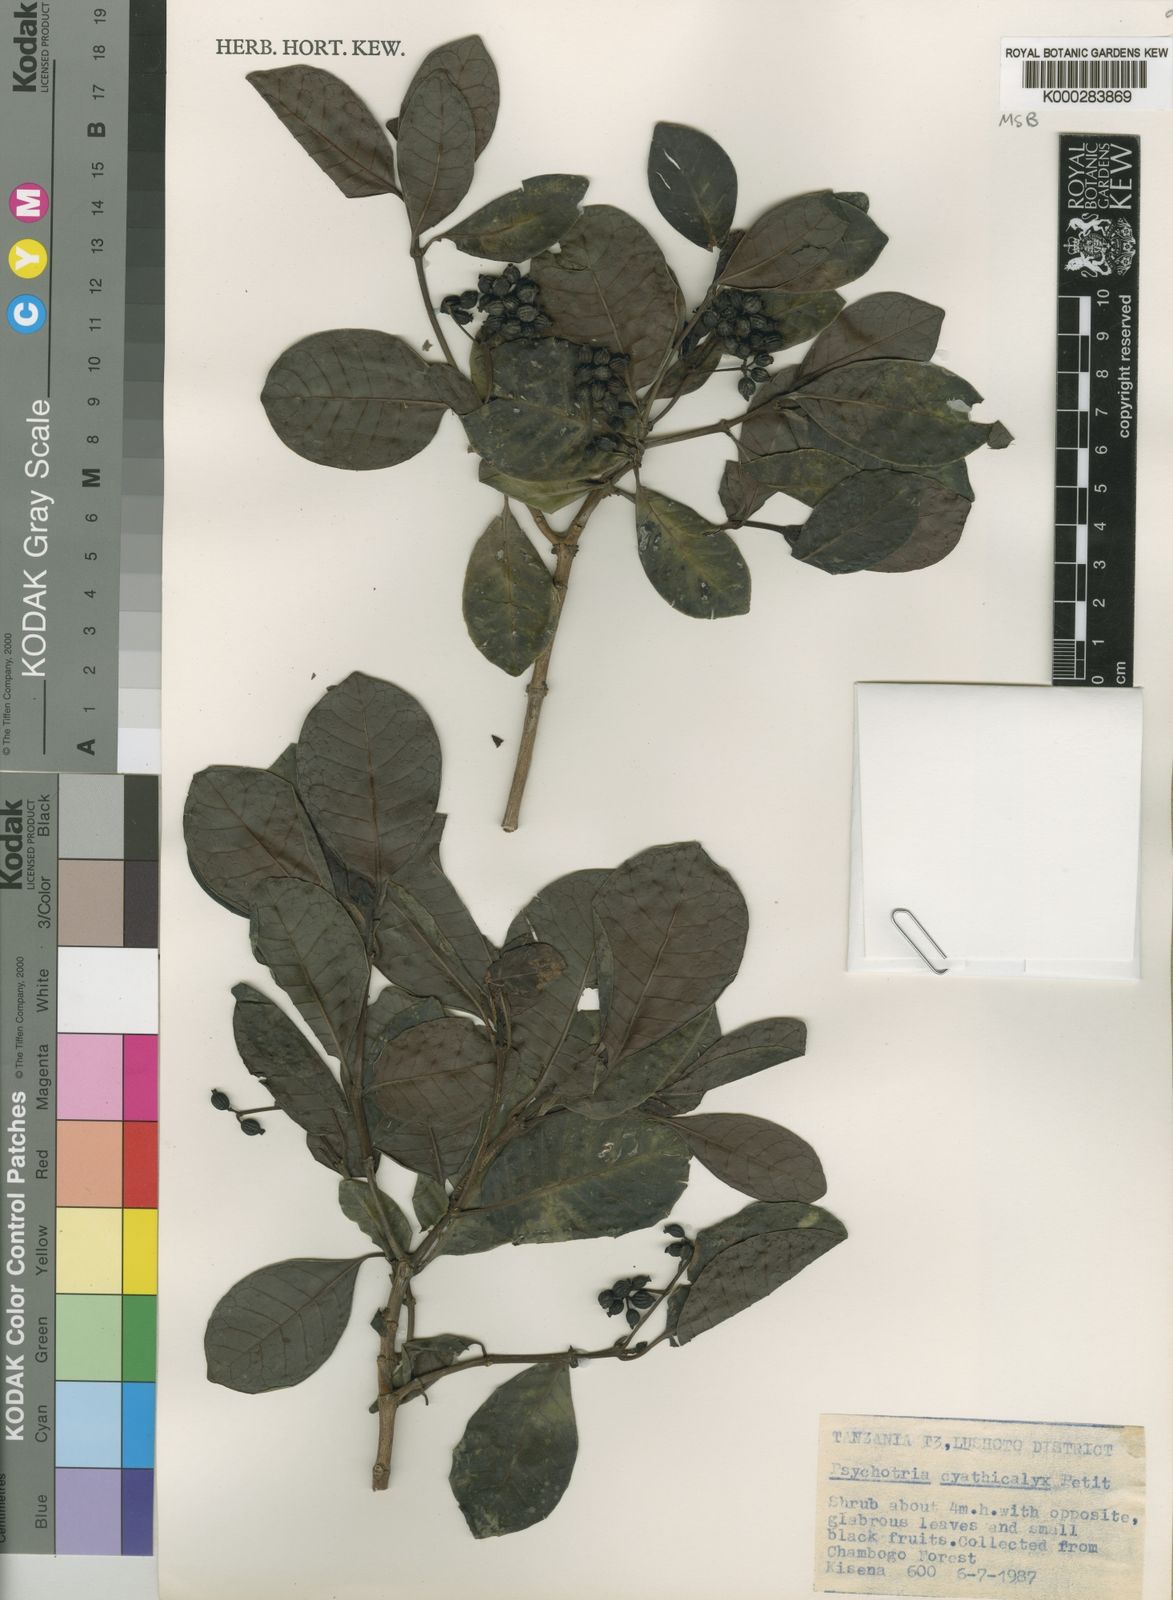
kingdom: Plantae
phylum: Tracheophyta
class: Magnoliopsida
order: Gentianales
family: Rubiaceae
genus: Psychotria
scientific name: Psychotria cyathicalyx
